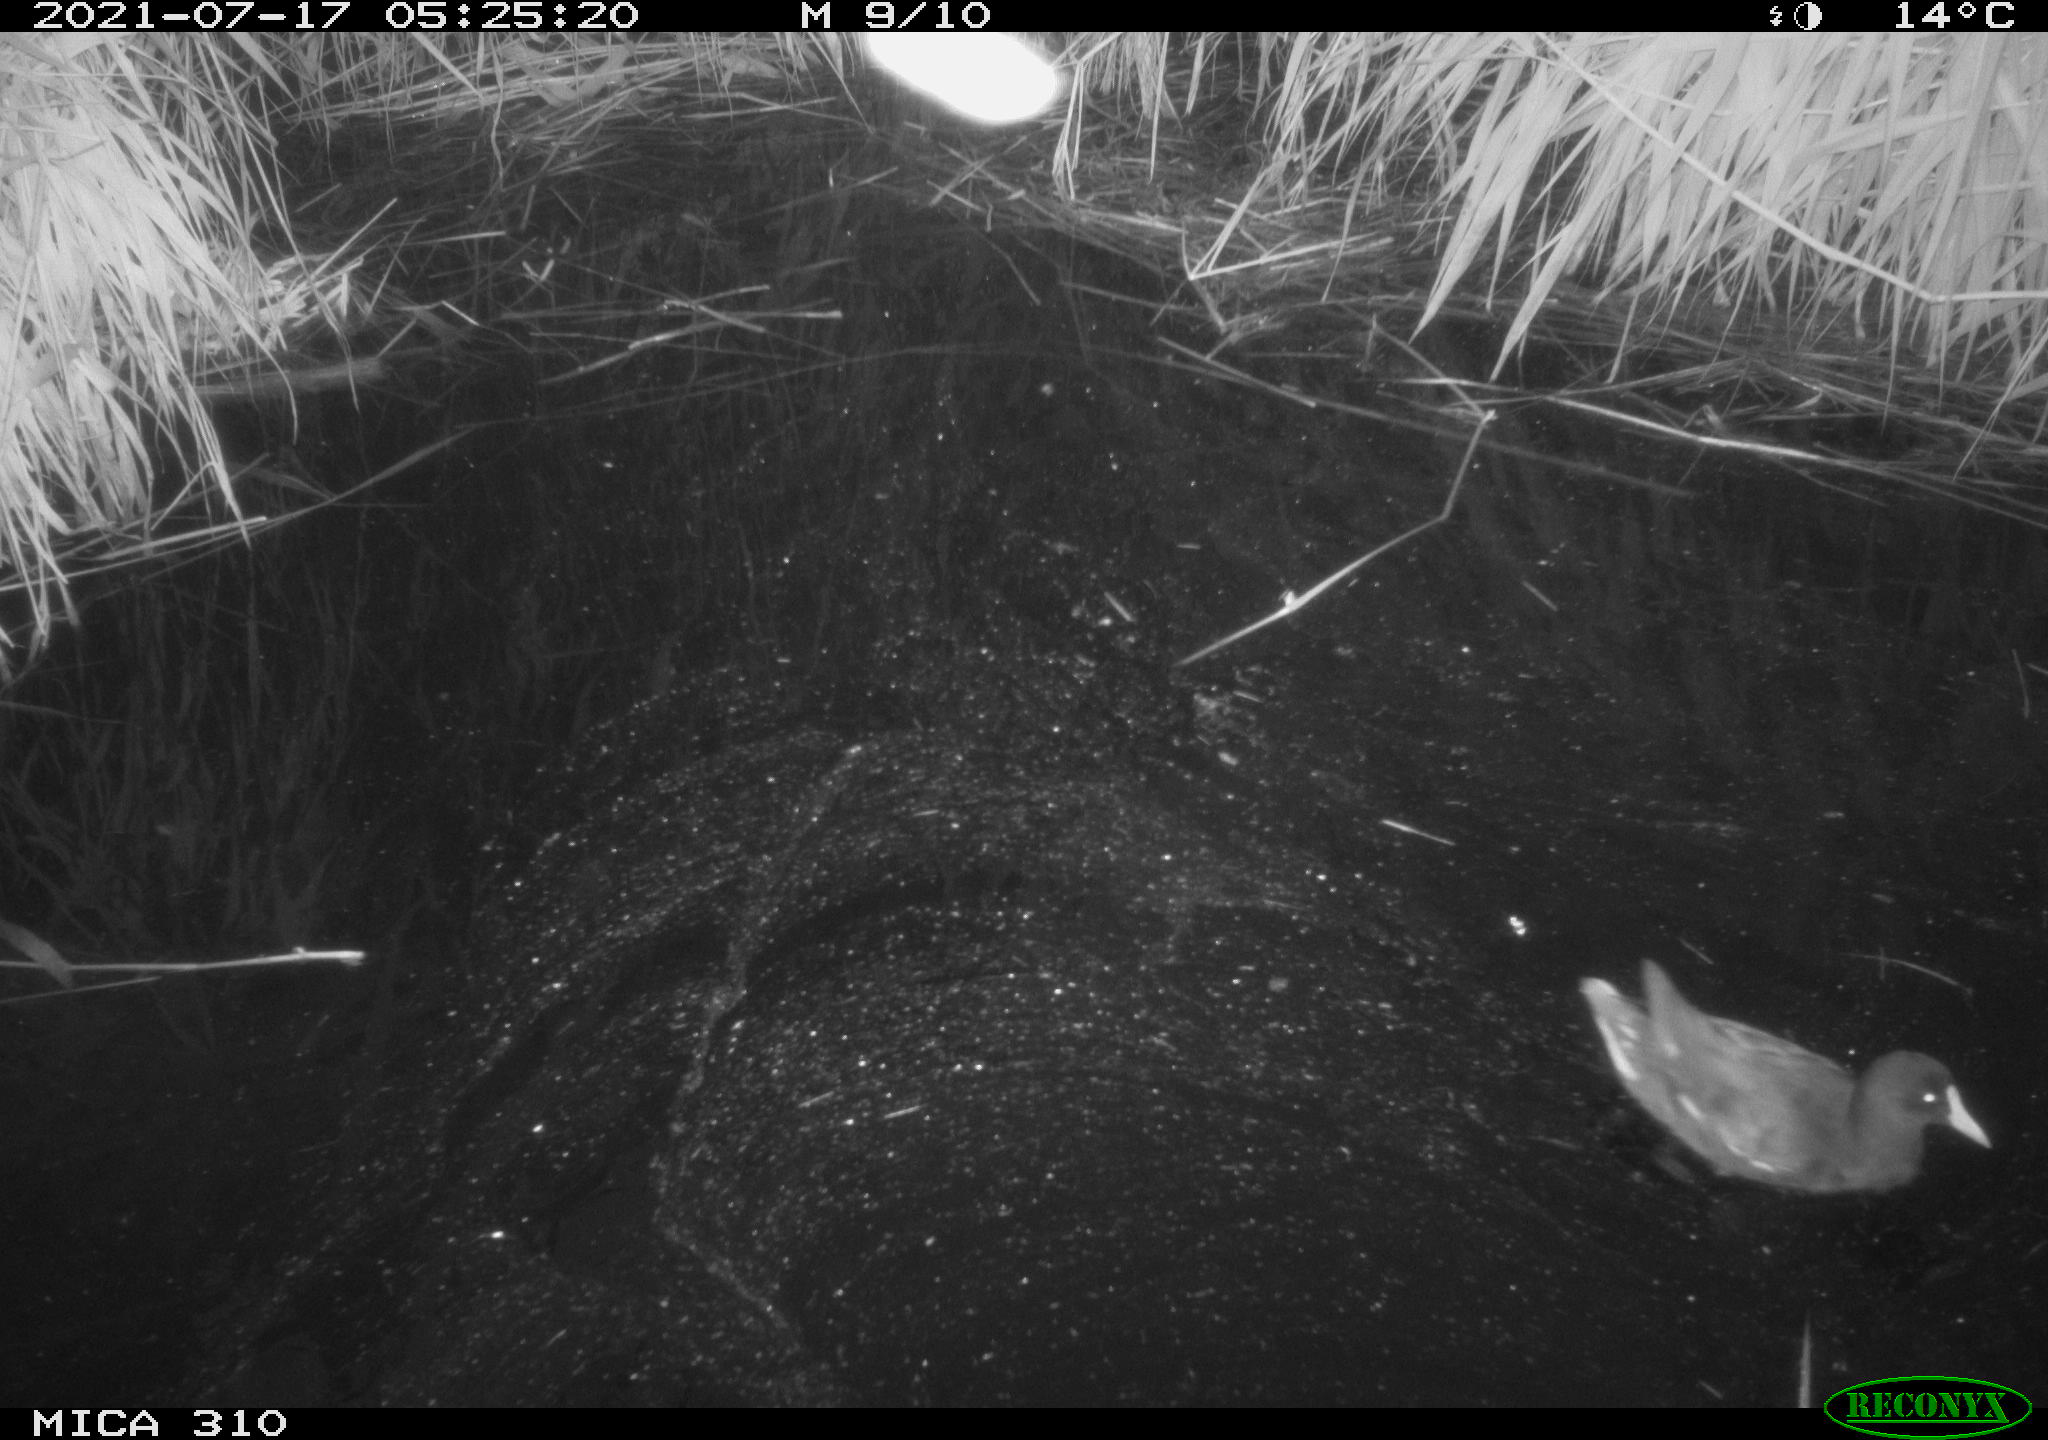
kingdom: Animalia
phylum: Chordata
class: Aves
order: Gruiformes
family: Rallidae
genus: Gallinula
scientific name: Gallinula chloropus
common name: Common moorhen
